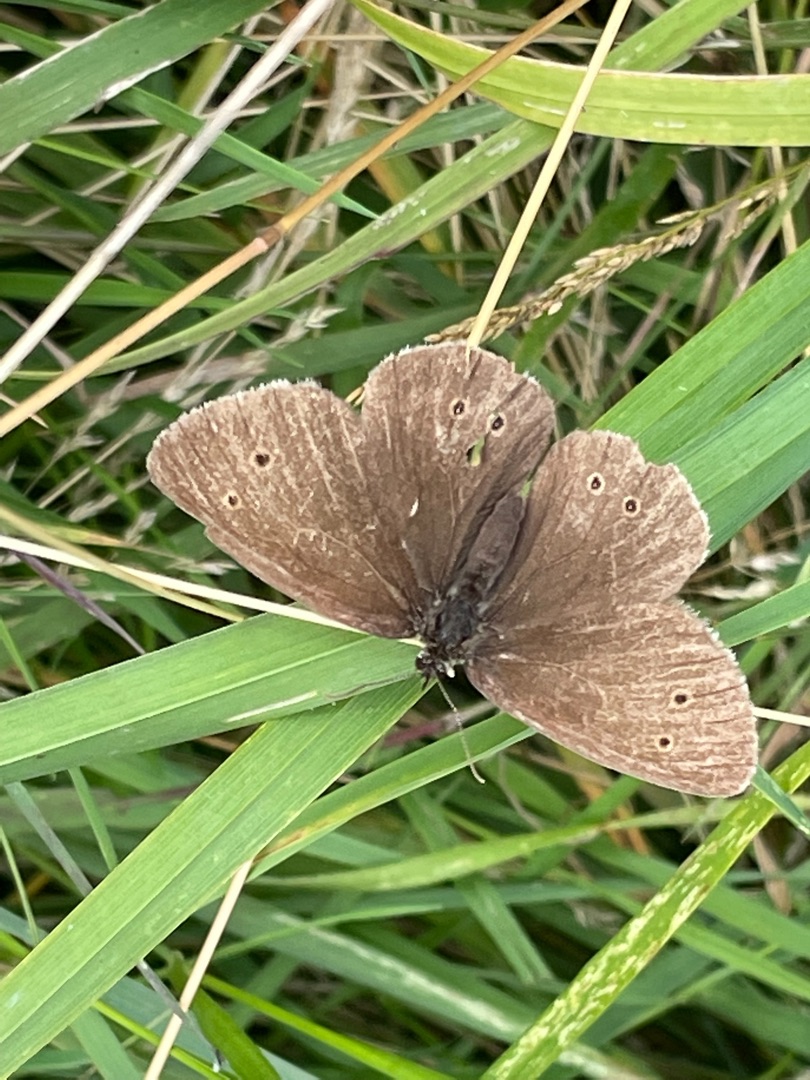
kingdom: Animalia
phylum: Arthropoda
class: Insecta
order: Lepidoptera
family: Nymphalidae
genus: Aphantopus
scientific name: Aphantopus hyperantus
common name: Engrandøje
